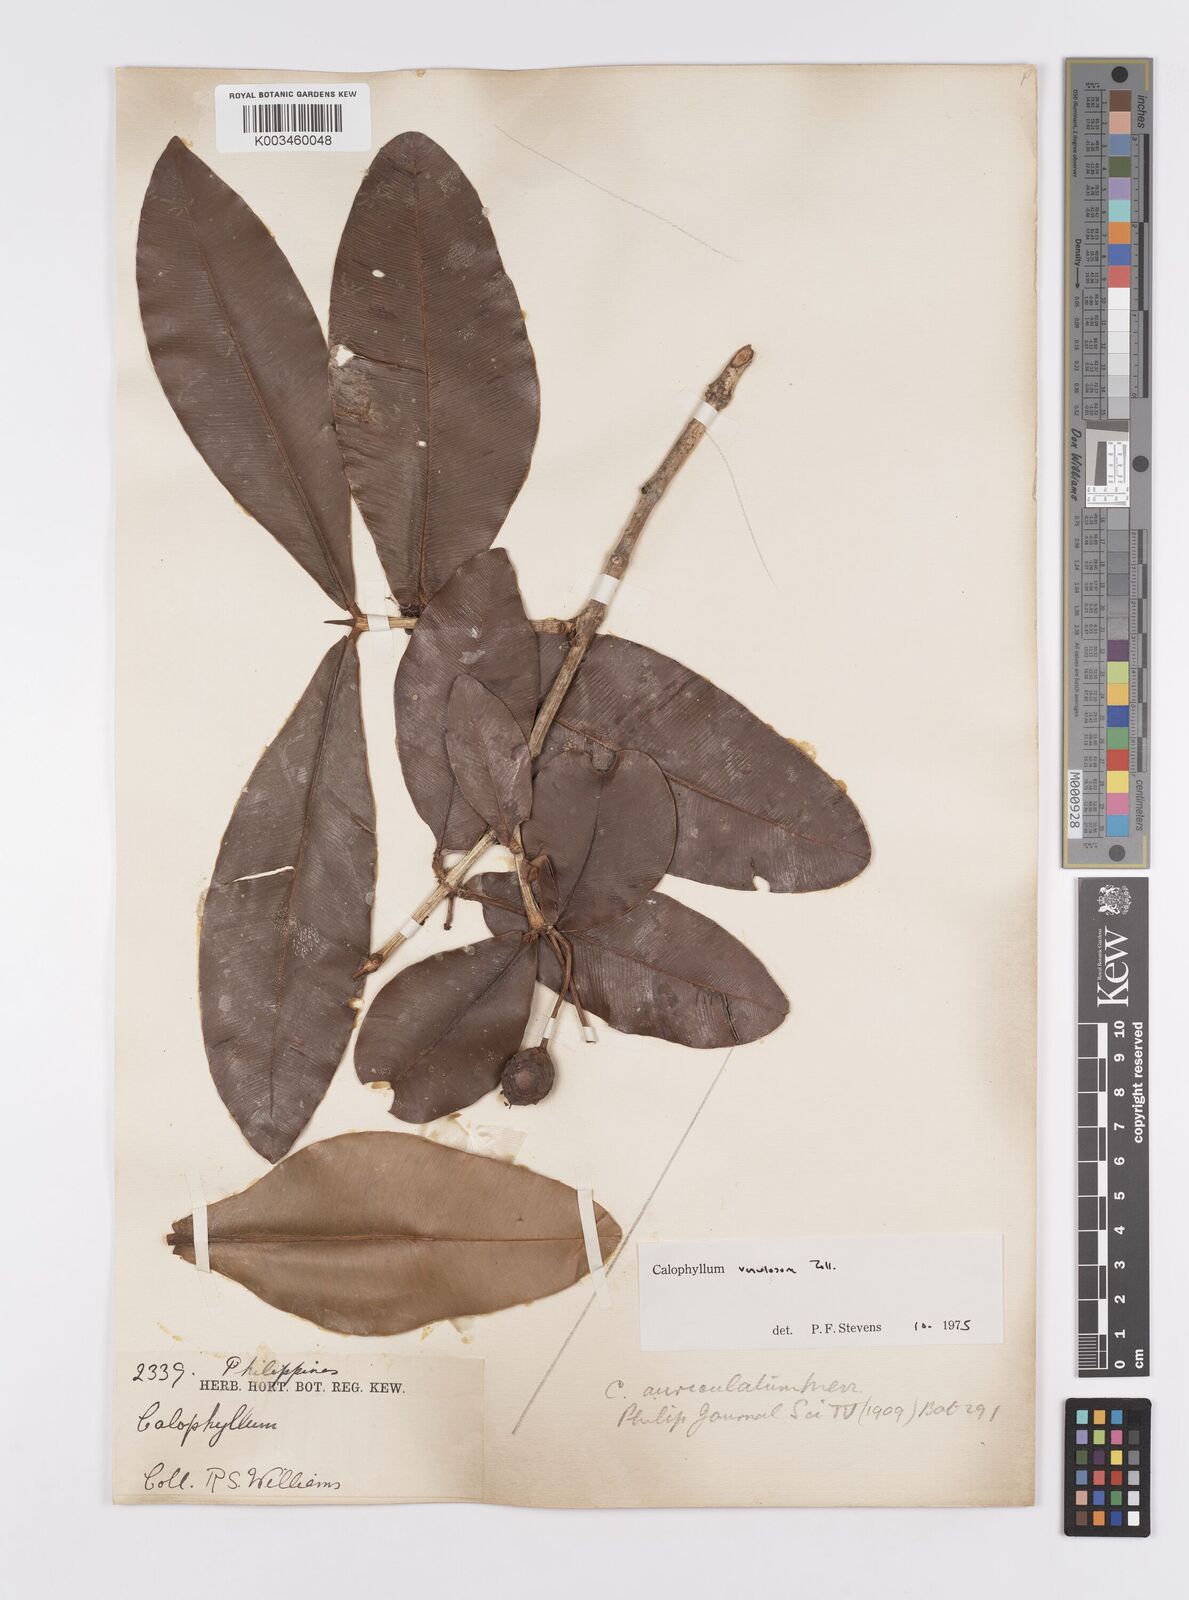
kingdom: Plantae
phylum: Tracheophyta
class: Magnoliopsida
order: Malpighiales
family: Calophyllaceae
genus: Calophyllum
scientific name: Calophyllum venulosum
